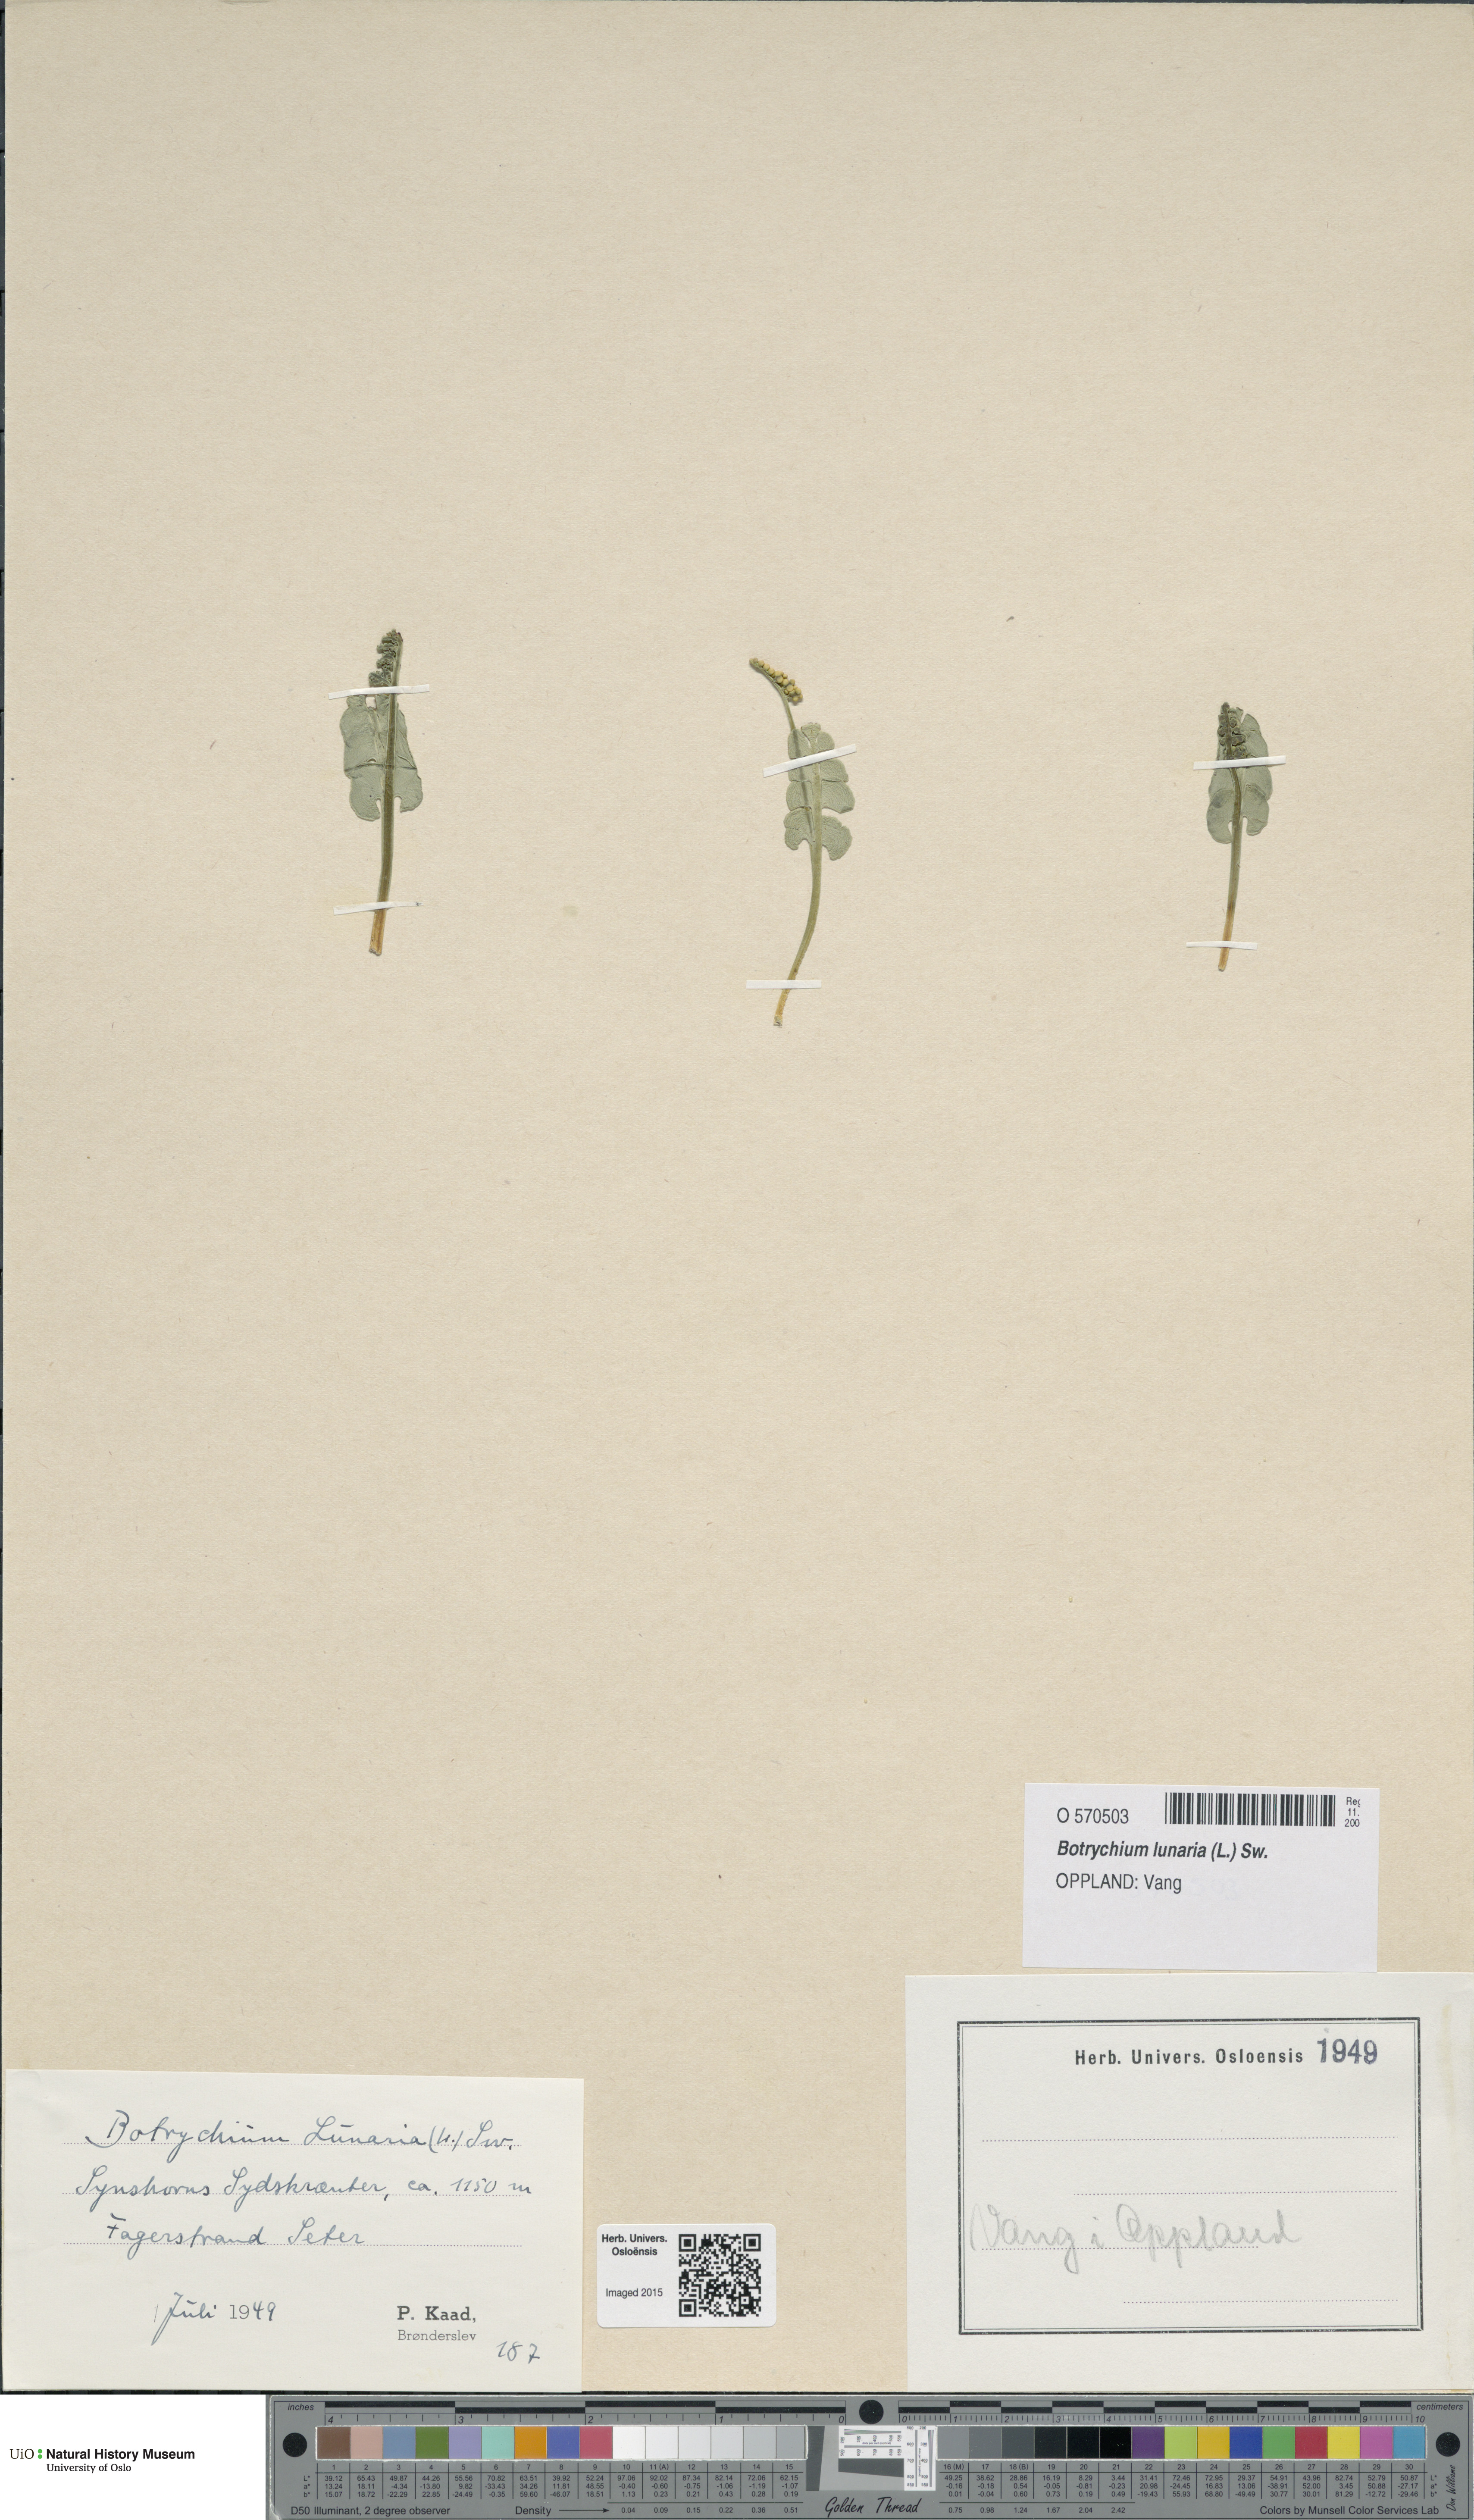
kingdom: Plantae
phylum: Tracheophyta
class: Polypodiopsida
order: Ophioglossales
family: Ophioglossaceae
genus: Botrychium
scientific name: Botrychium lunaria
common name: Moonwort
